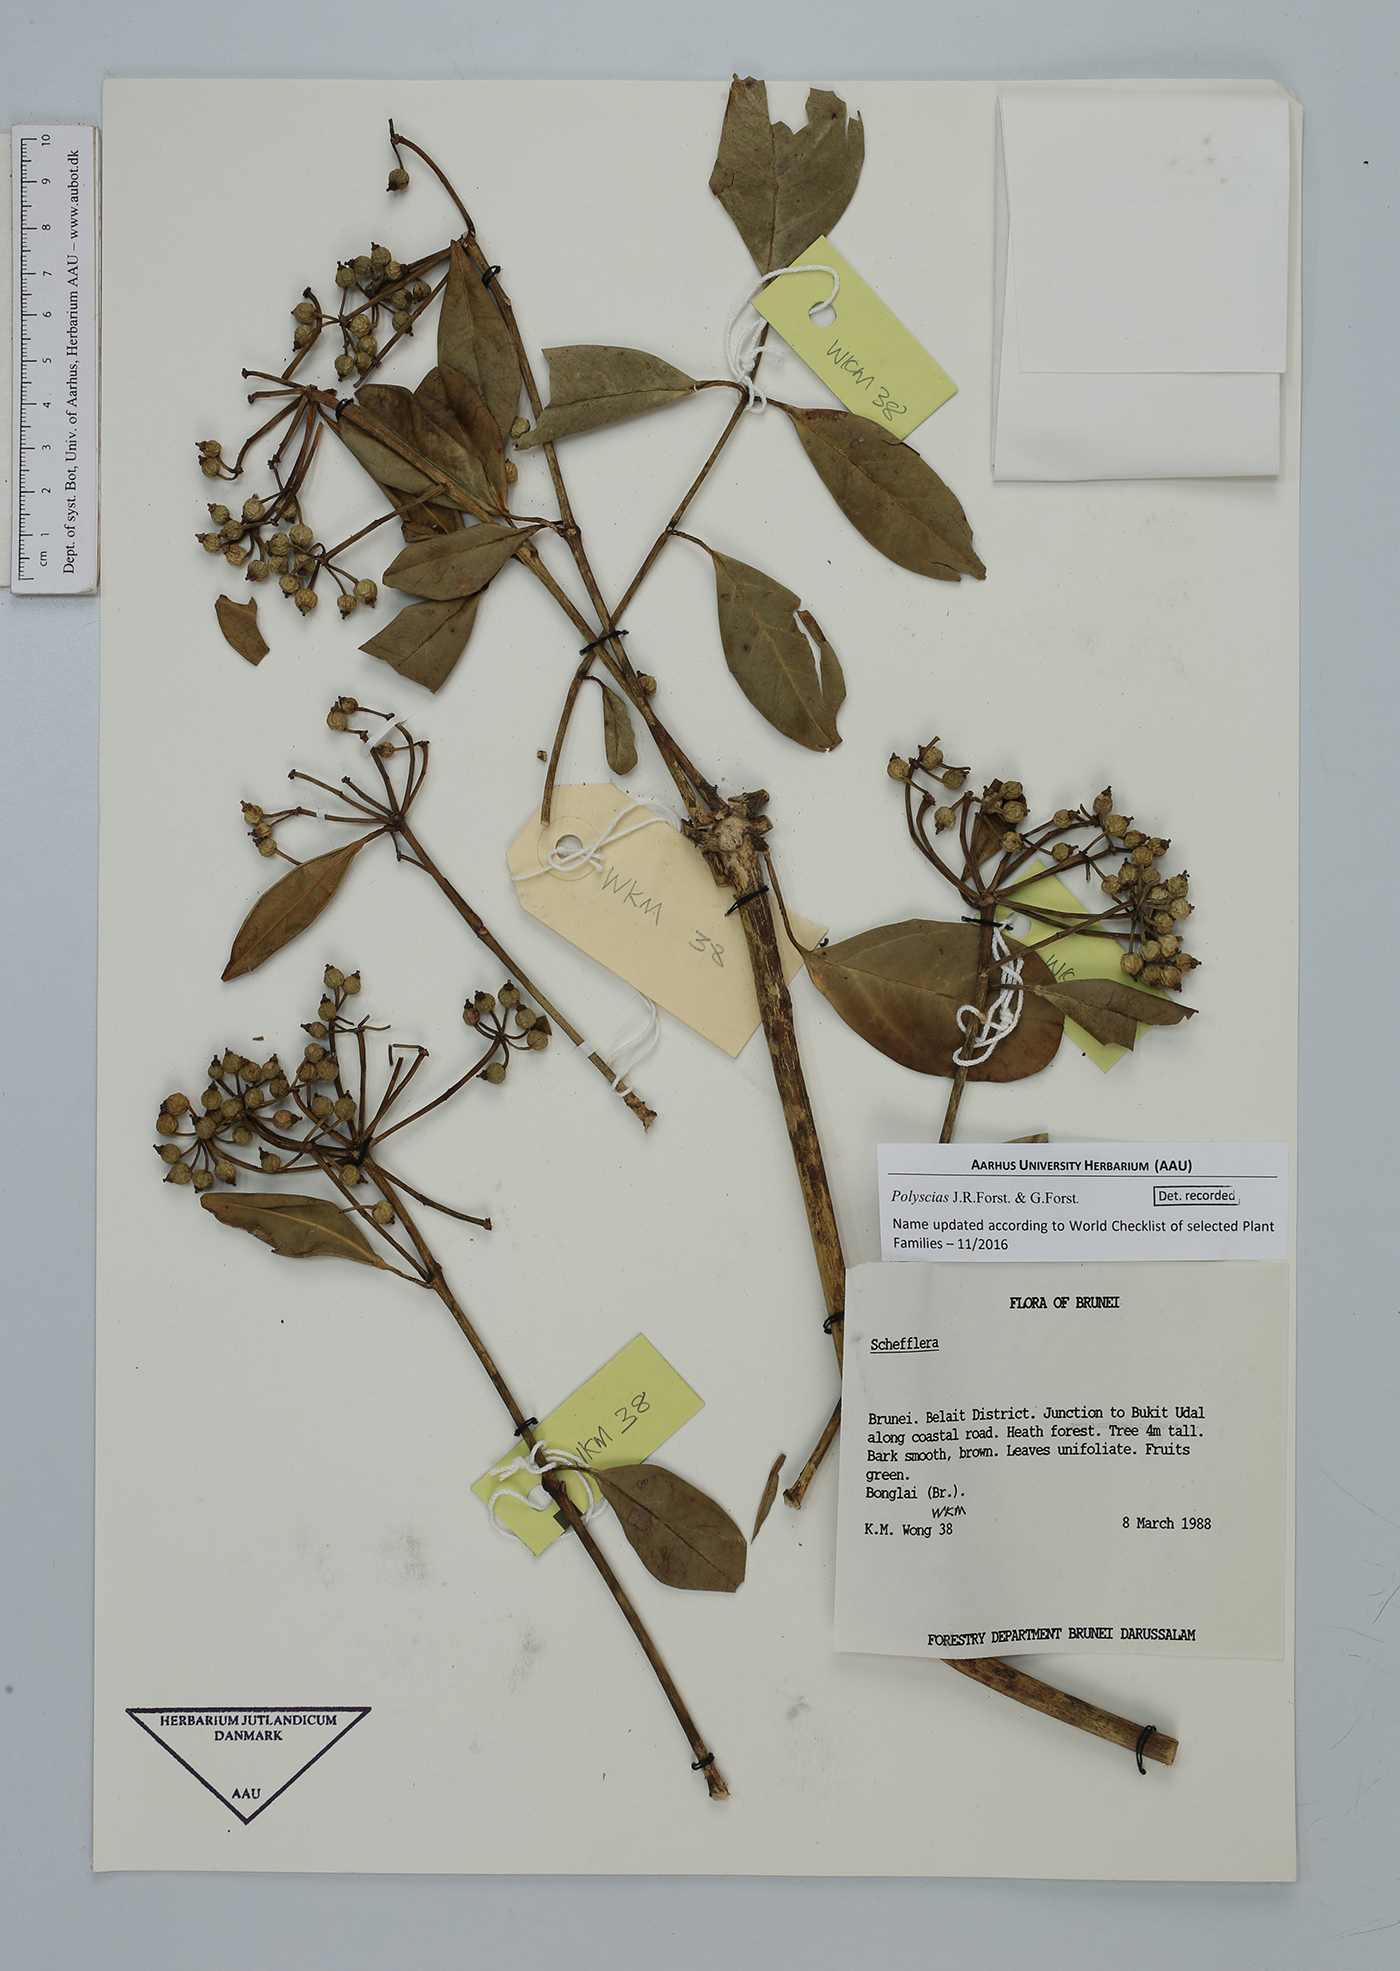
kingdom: Plantae
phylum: Tracheophyta
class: Magnoliopsida
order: Apiales
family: Araliaceae
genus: Polyscias
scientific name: Polyscias
